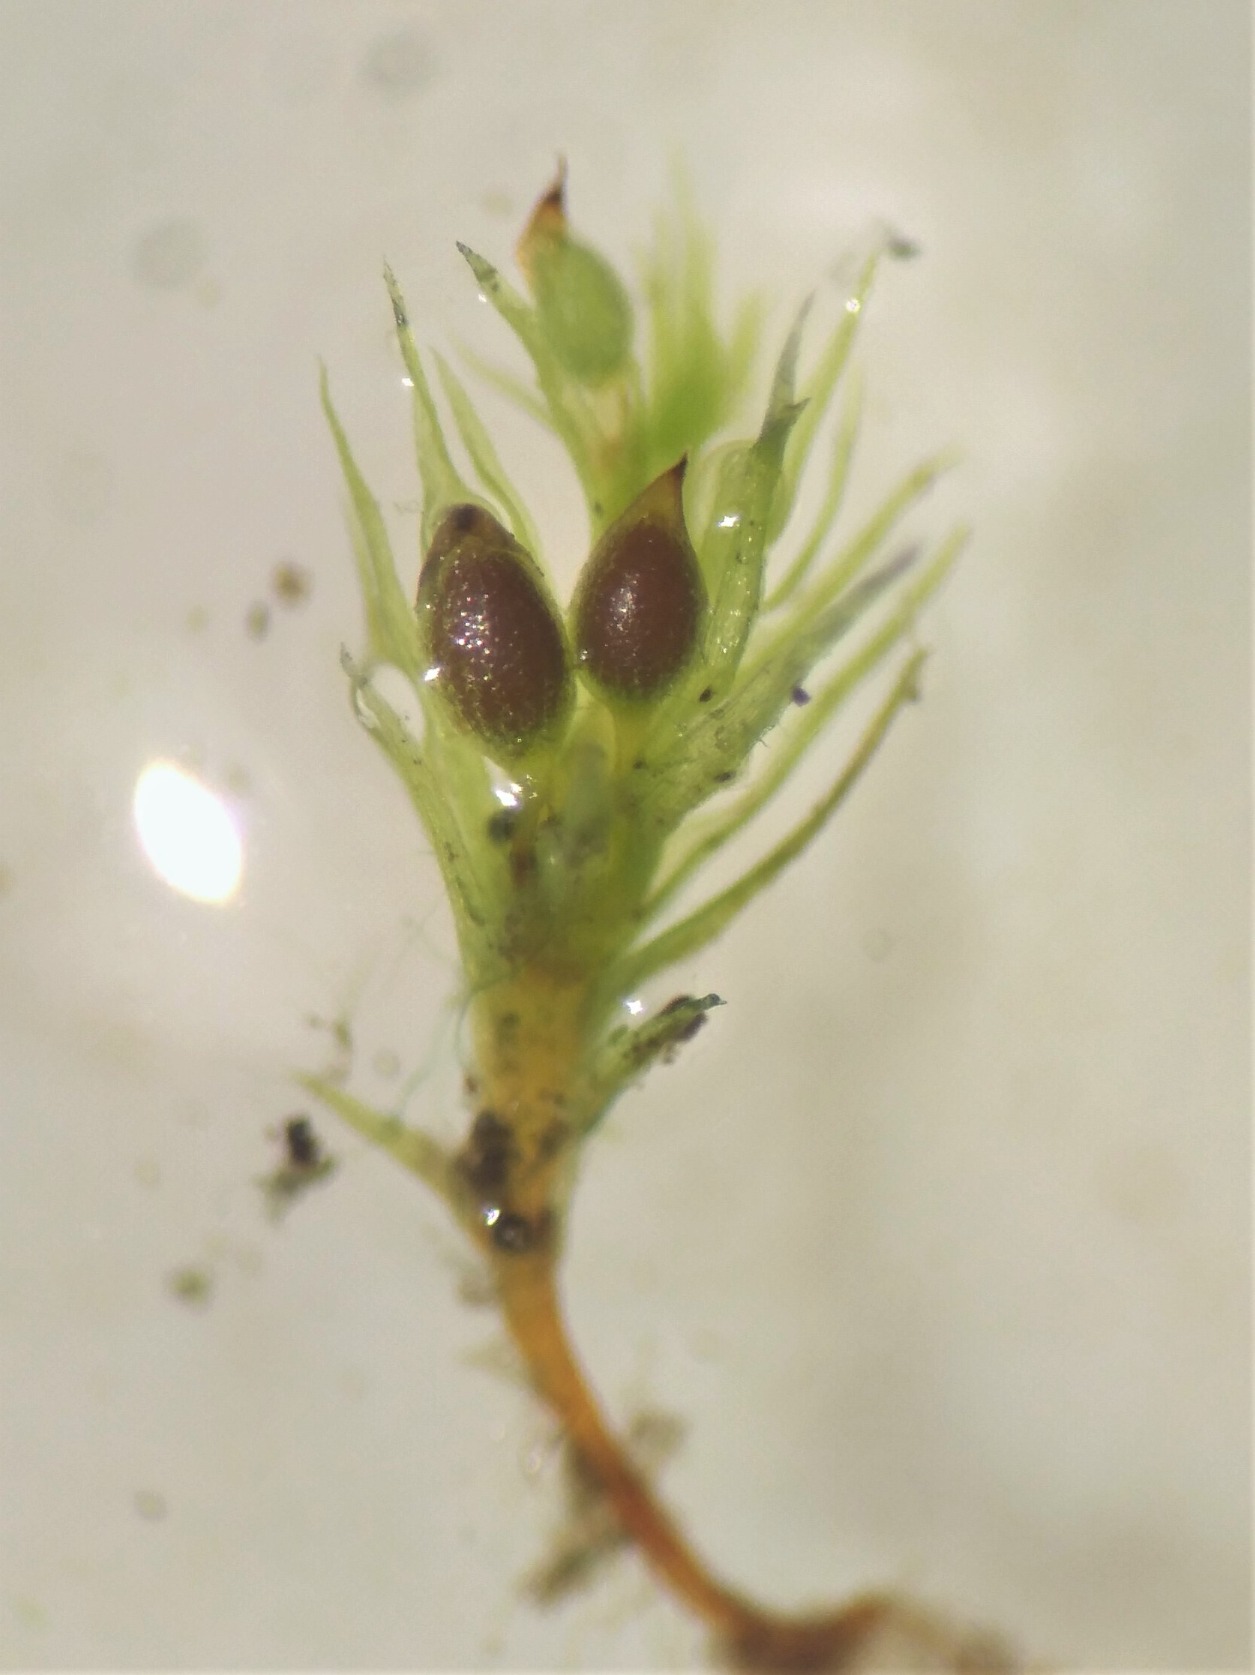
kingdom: Plantae
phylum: Bryophyta
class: Bryopsida
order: Dicranales
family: Ditrichaceae
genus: Pseudephemerum
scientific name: Pseudephemerum nitidum
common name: Jord-nøgenmos
